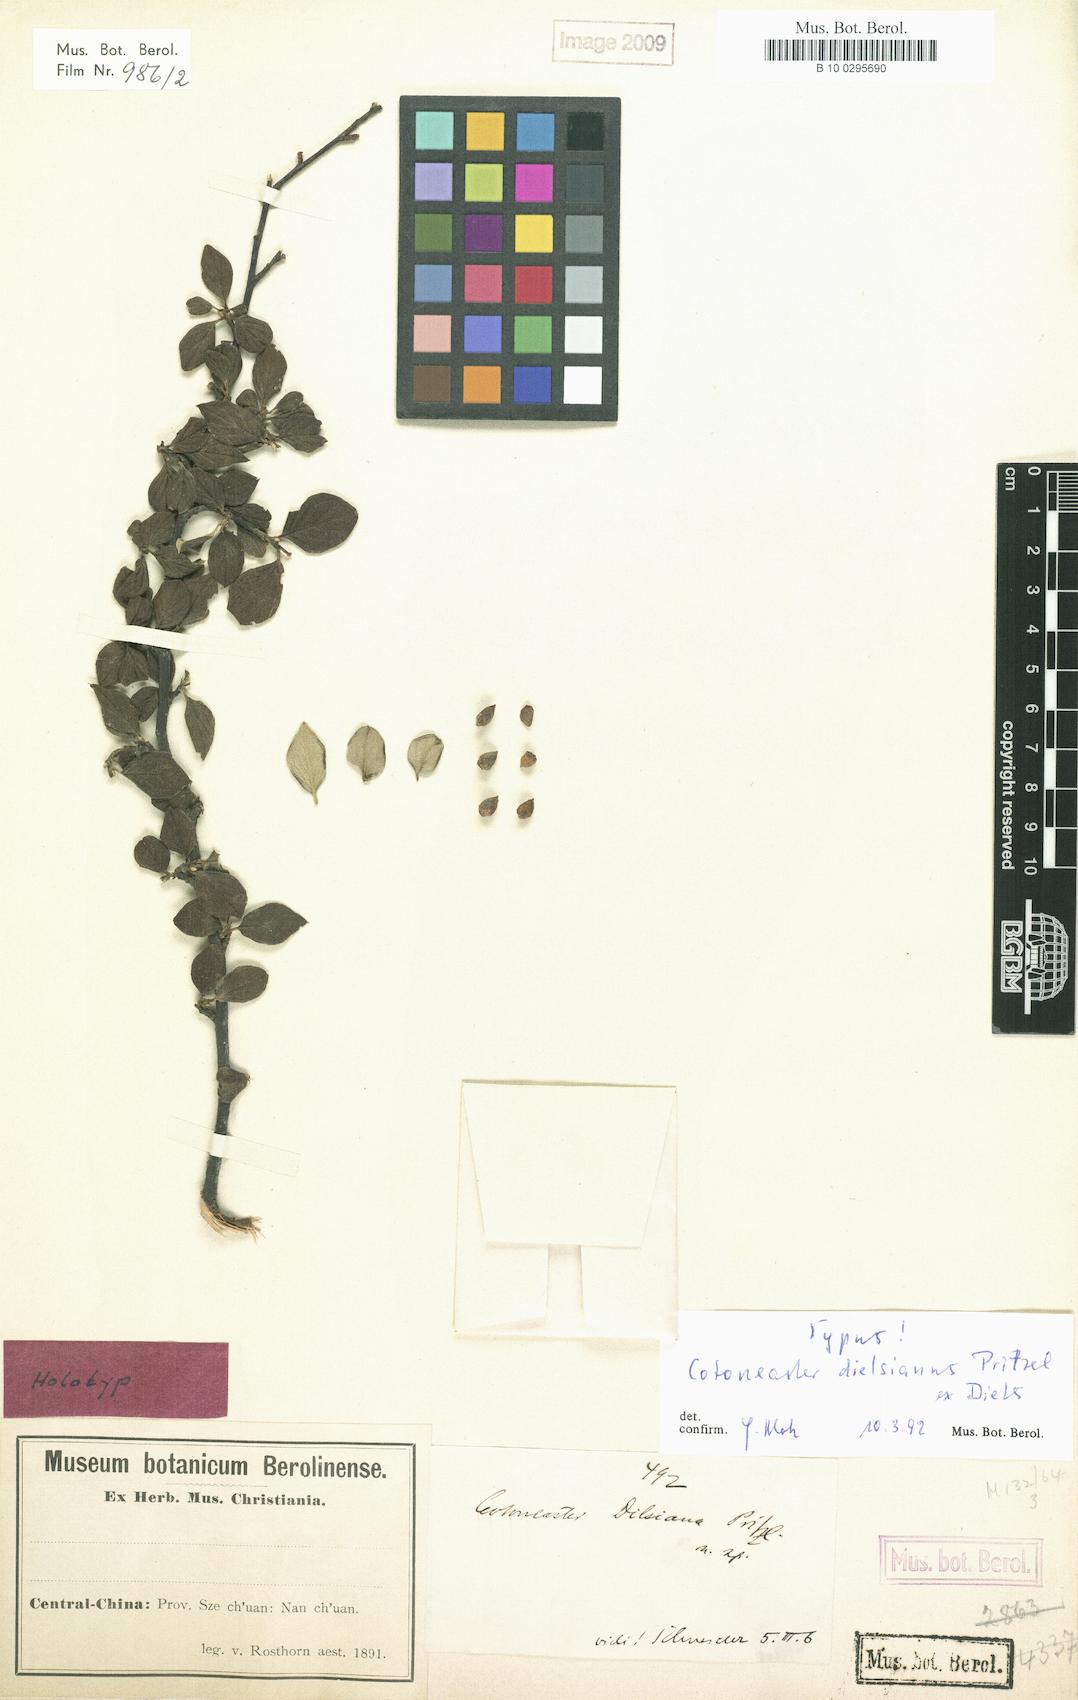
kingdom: Plantae
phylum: Tracheophyta
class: Magnoliopsida
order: Rosales
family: Rosaceae
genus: Cotoneaster
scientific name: Cotoneaster dielsianus
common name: Diels's cotoneaster
